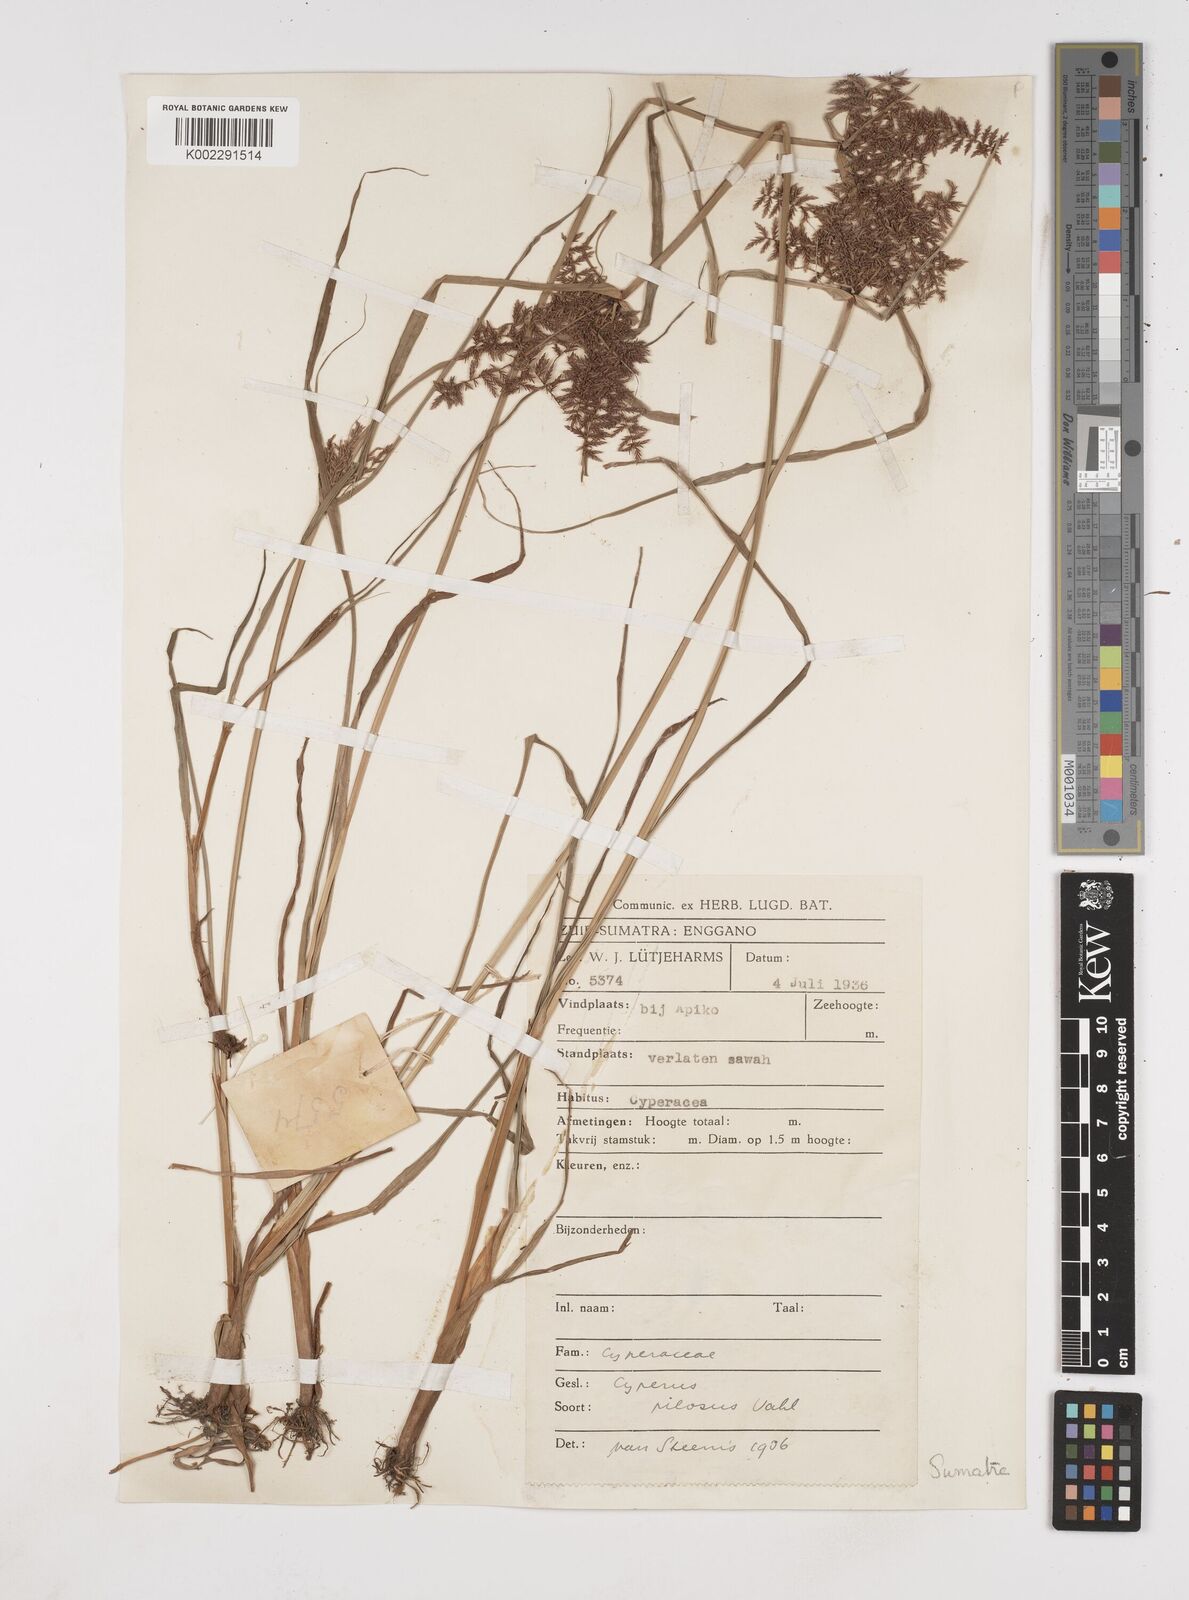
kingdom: Plantae
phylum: Tracheophyta
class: Liliopsida
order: Poales
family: Cyperaceae
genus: Cyperus
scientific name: Cyperus pilosus
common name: Fuzzy flatsedge
